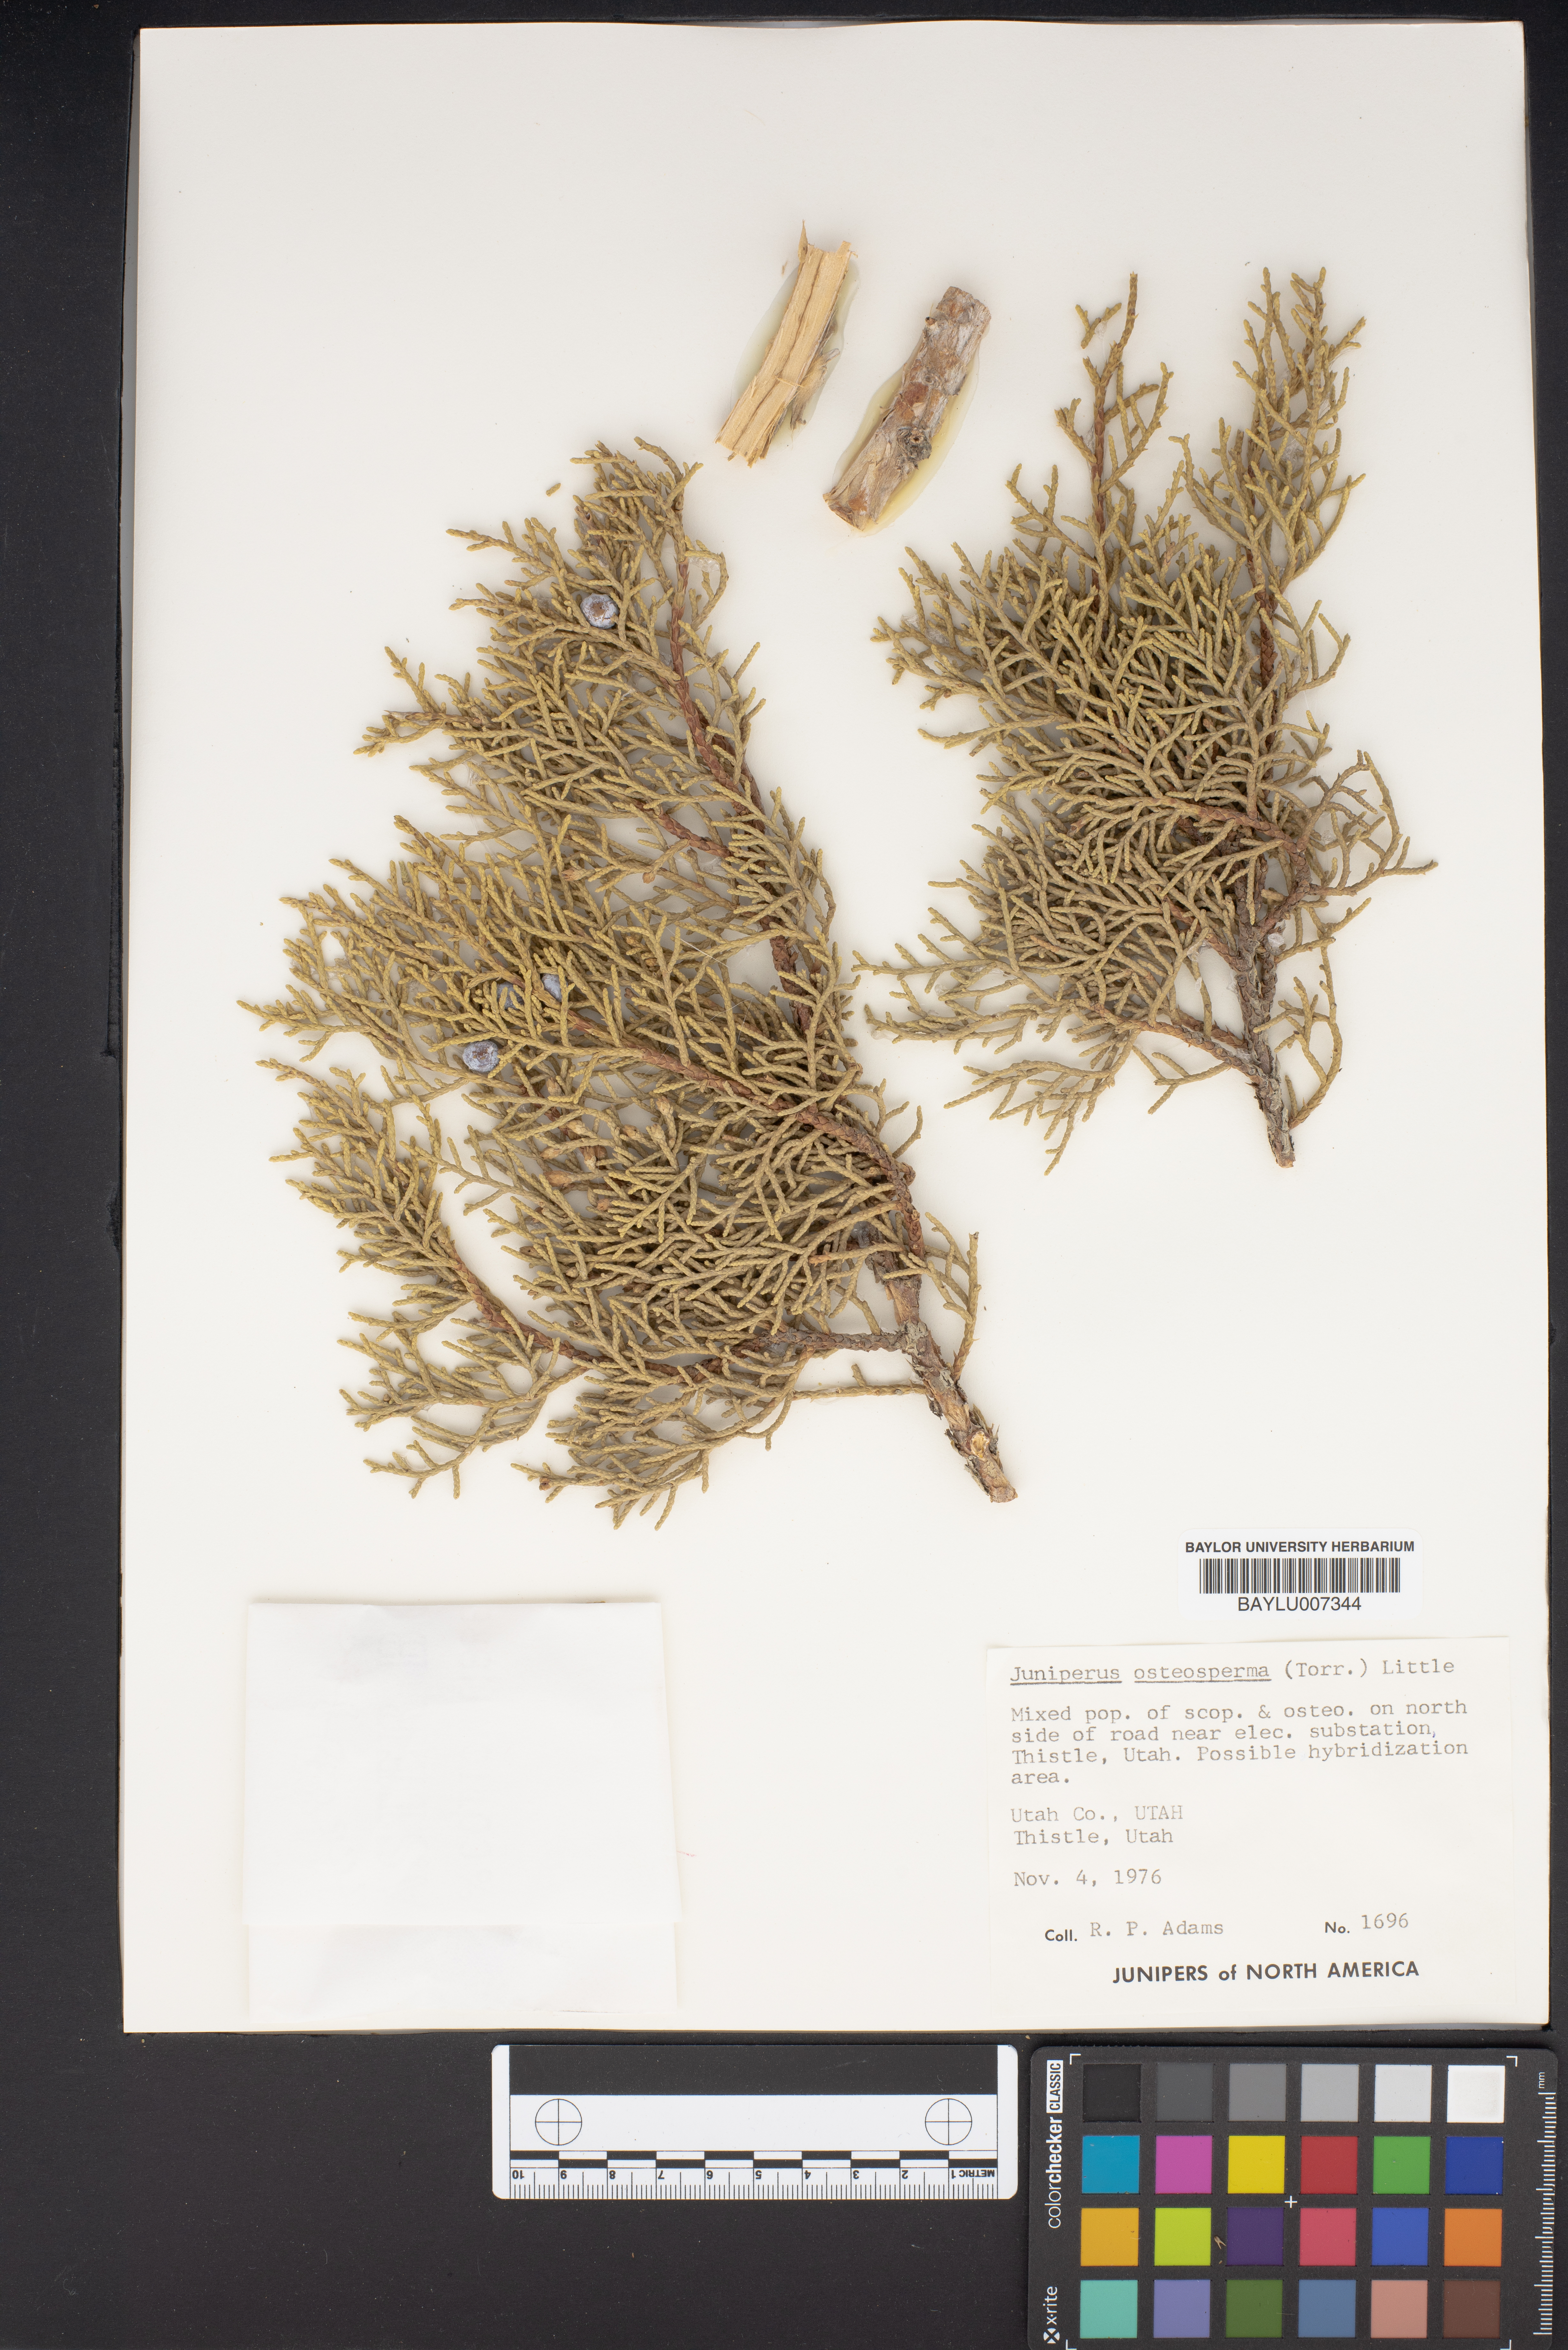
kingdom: Plantae
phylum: Tracheophyta
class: Pinopsida
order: Pinales
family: Cupressaceae
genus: Juniperus
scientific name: Juniperus osteosperma
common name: Utah juniper
